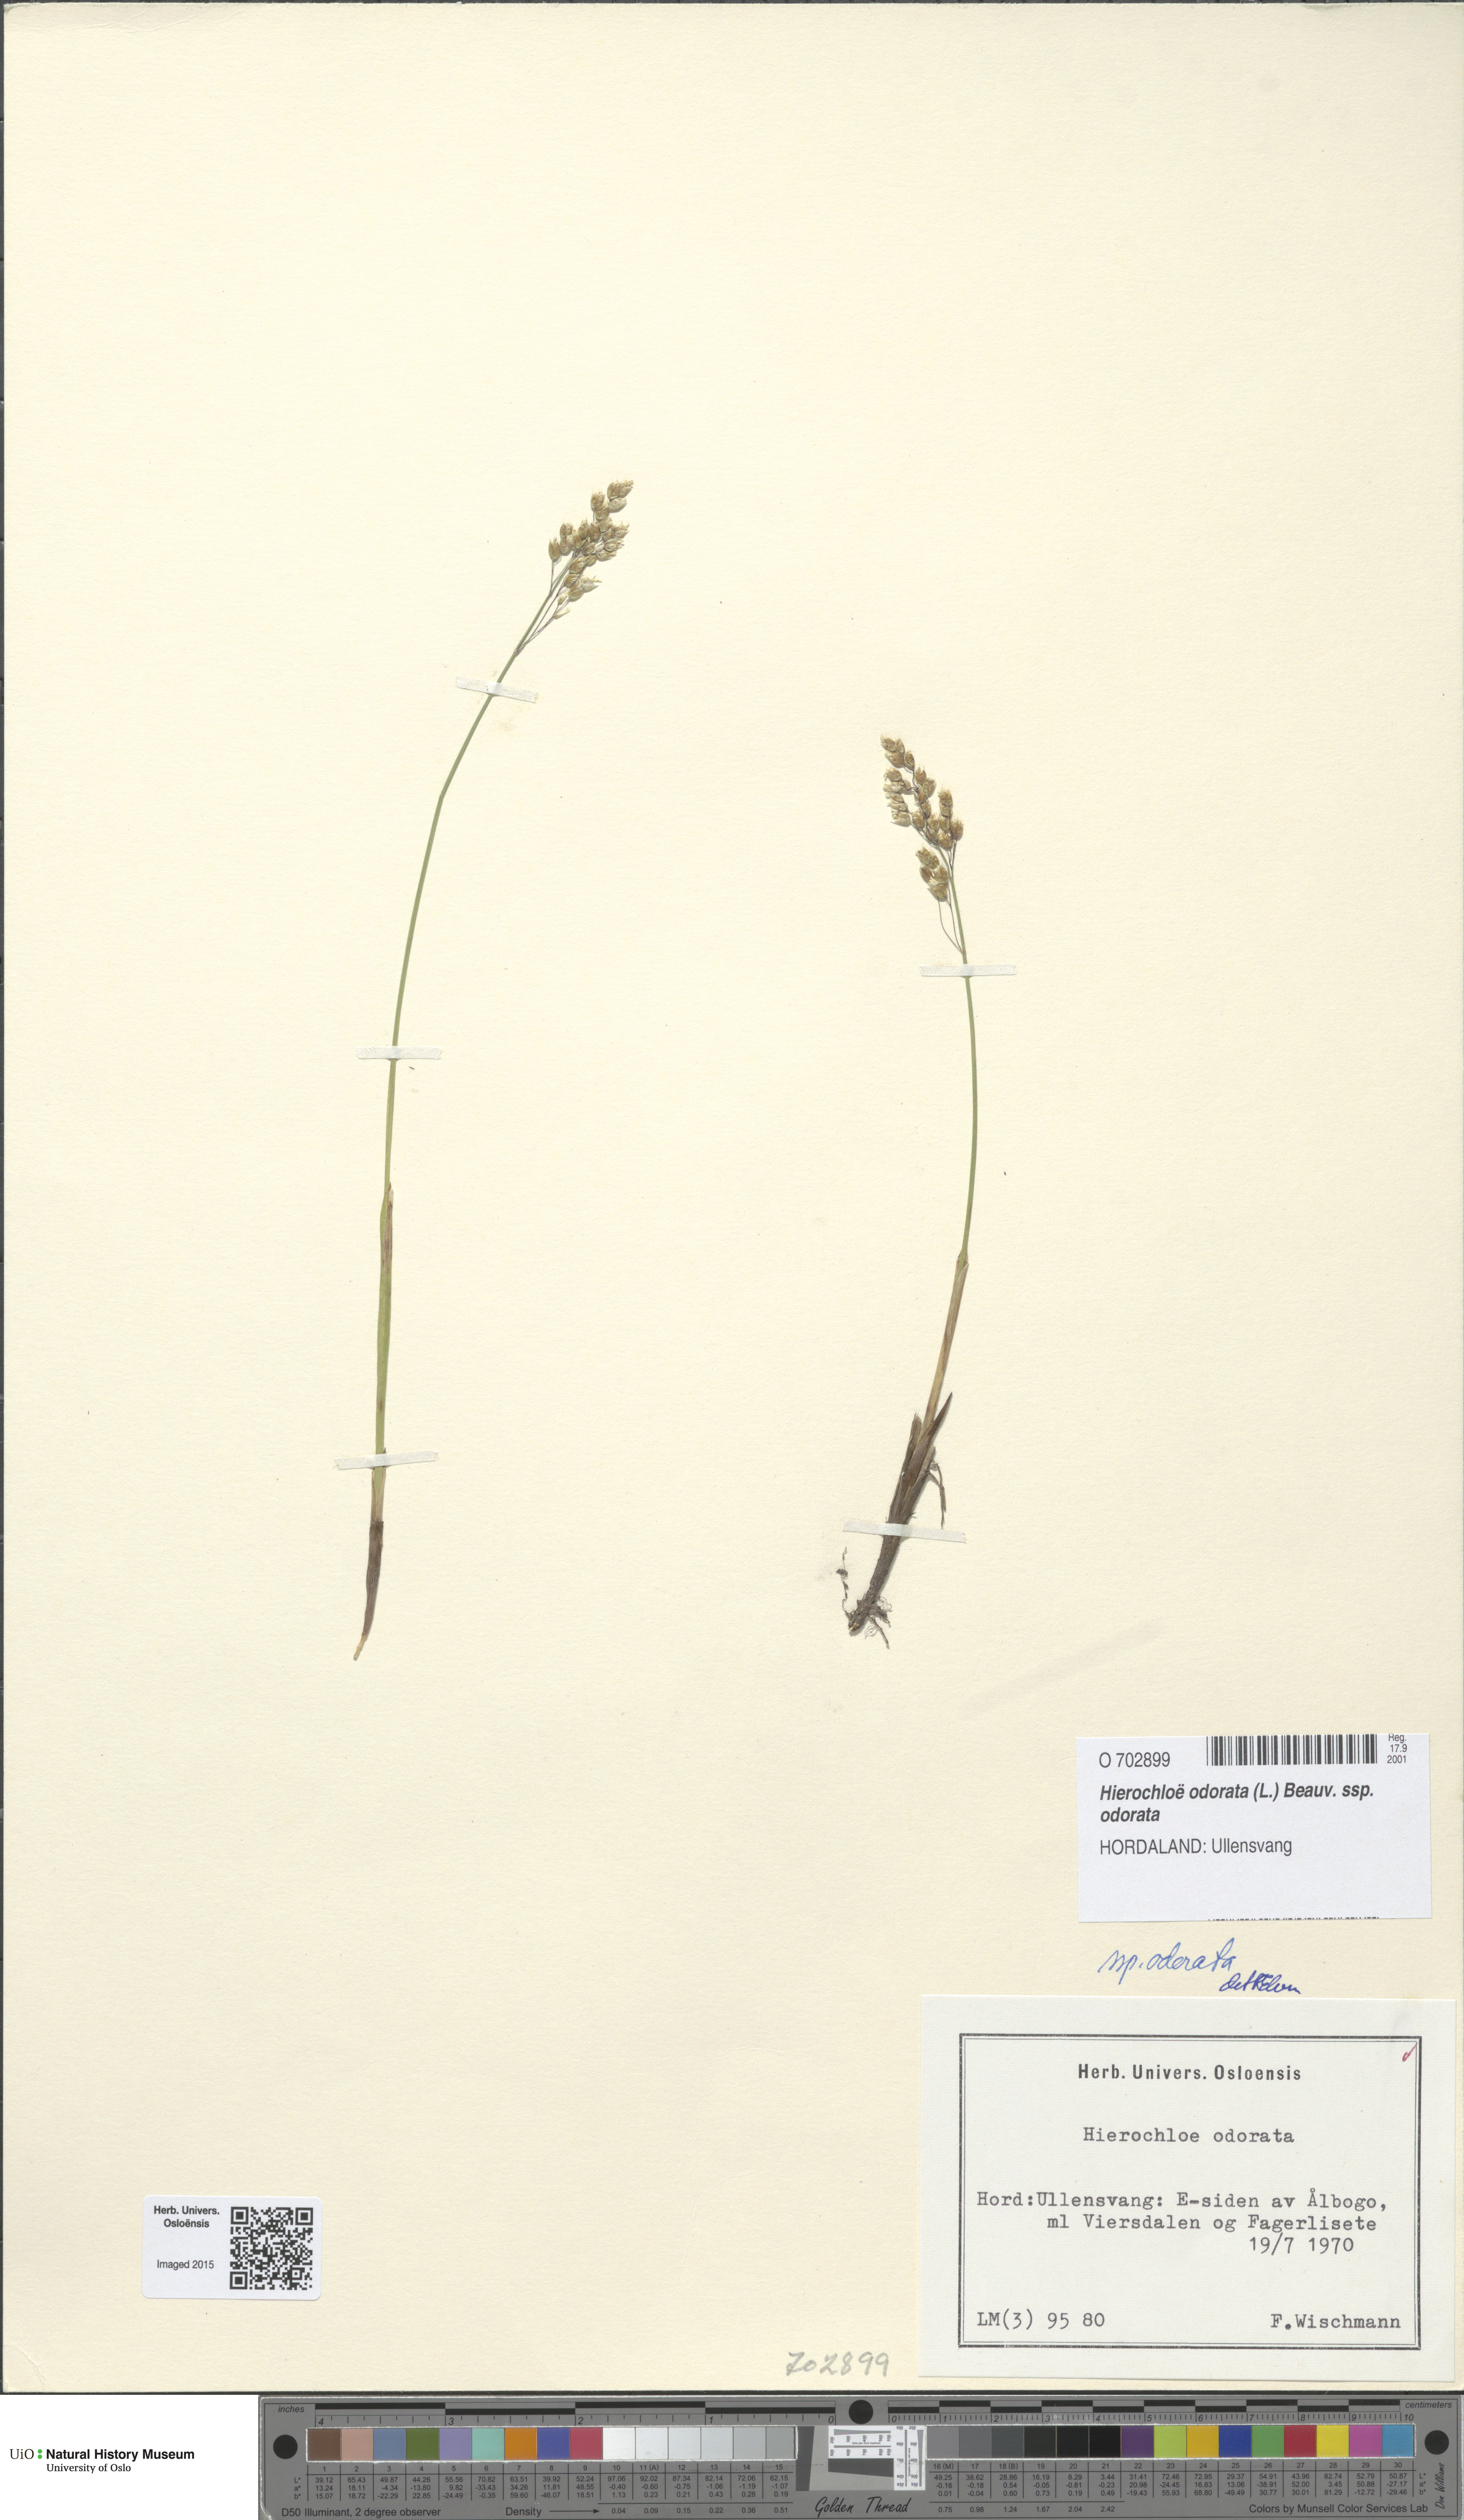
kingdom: Plantae
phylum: Tracheophyta
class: Liliopsida
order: Poales
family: Poaceae
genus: Anthoxanthum
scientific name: Anthoxanthum nitens
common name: Holy grass
